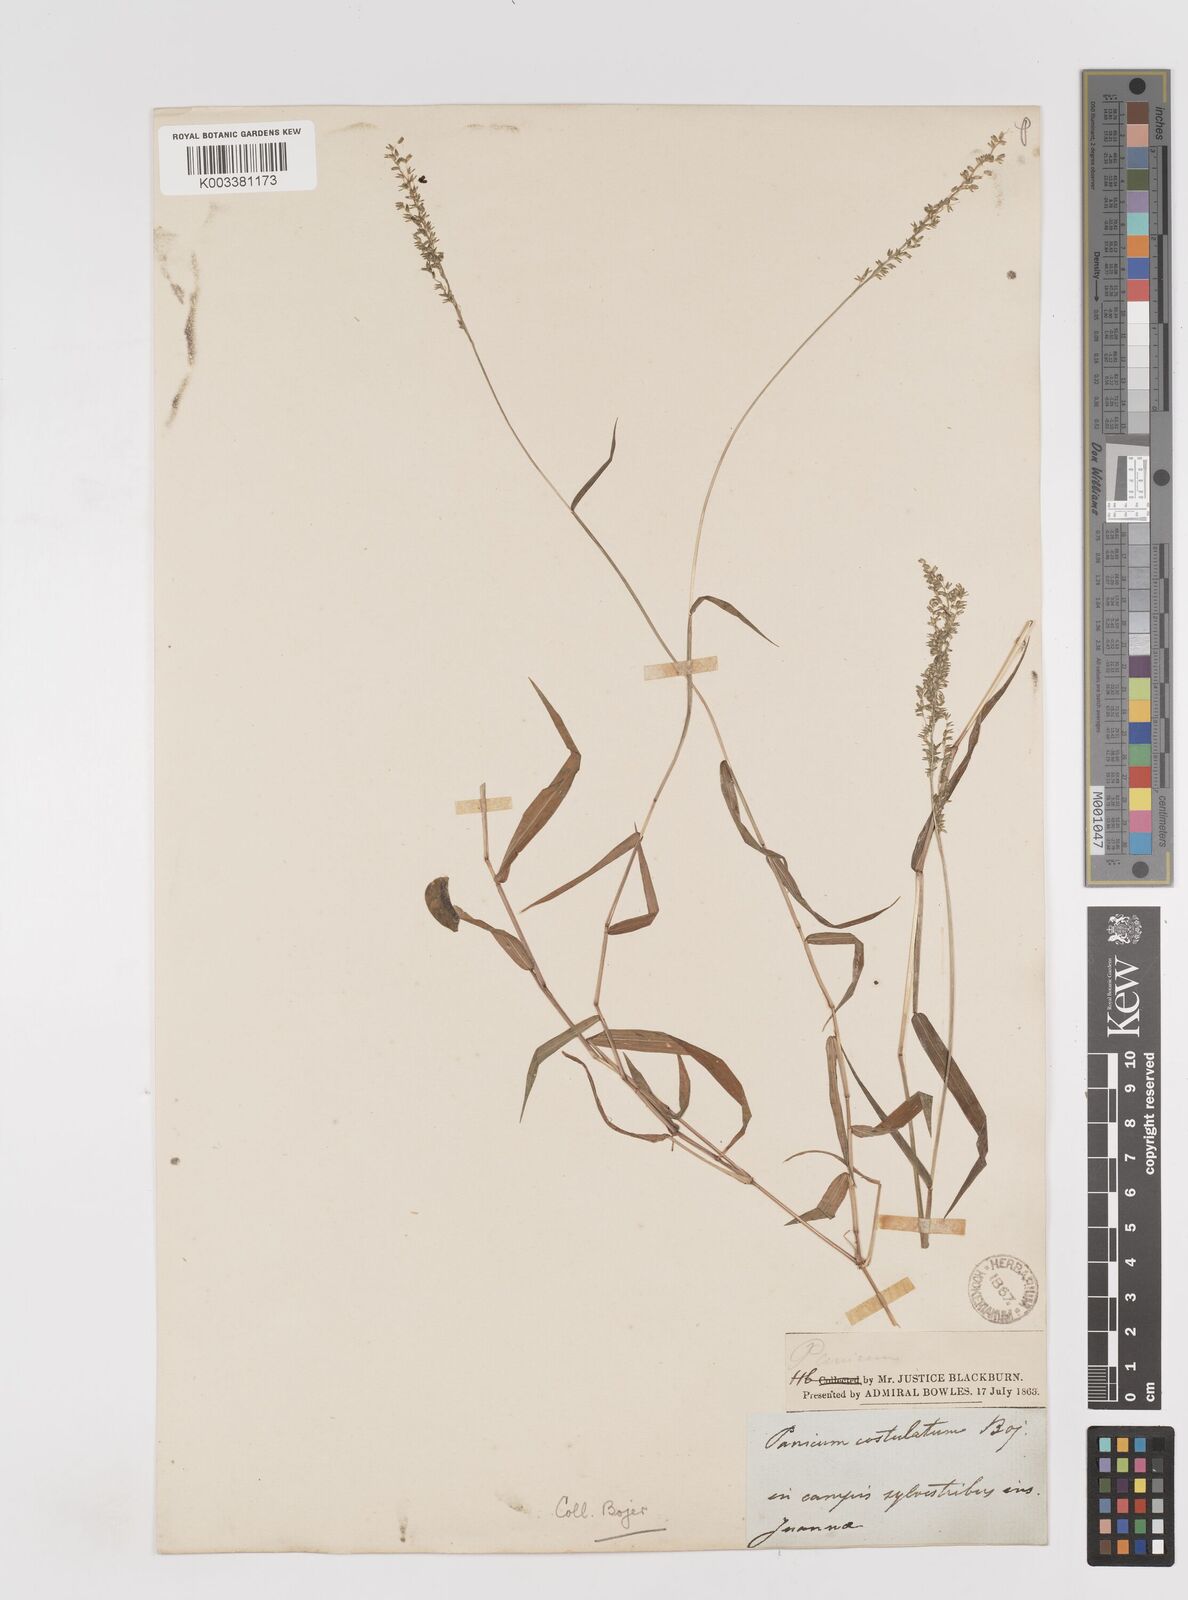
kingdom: Plantae
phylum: Tracheophyta
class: Liliopsida
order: Poales
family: Poaceae
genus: Sacciolepis
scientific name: Sacciolepis curvata
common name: Forest hood grass
